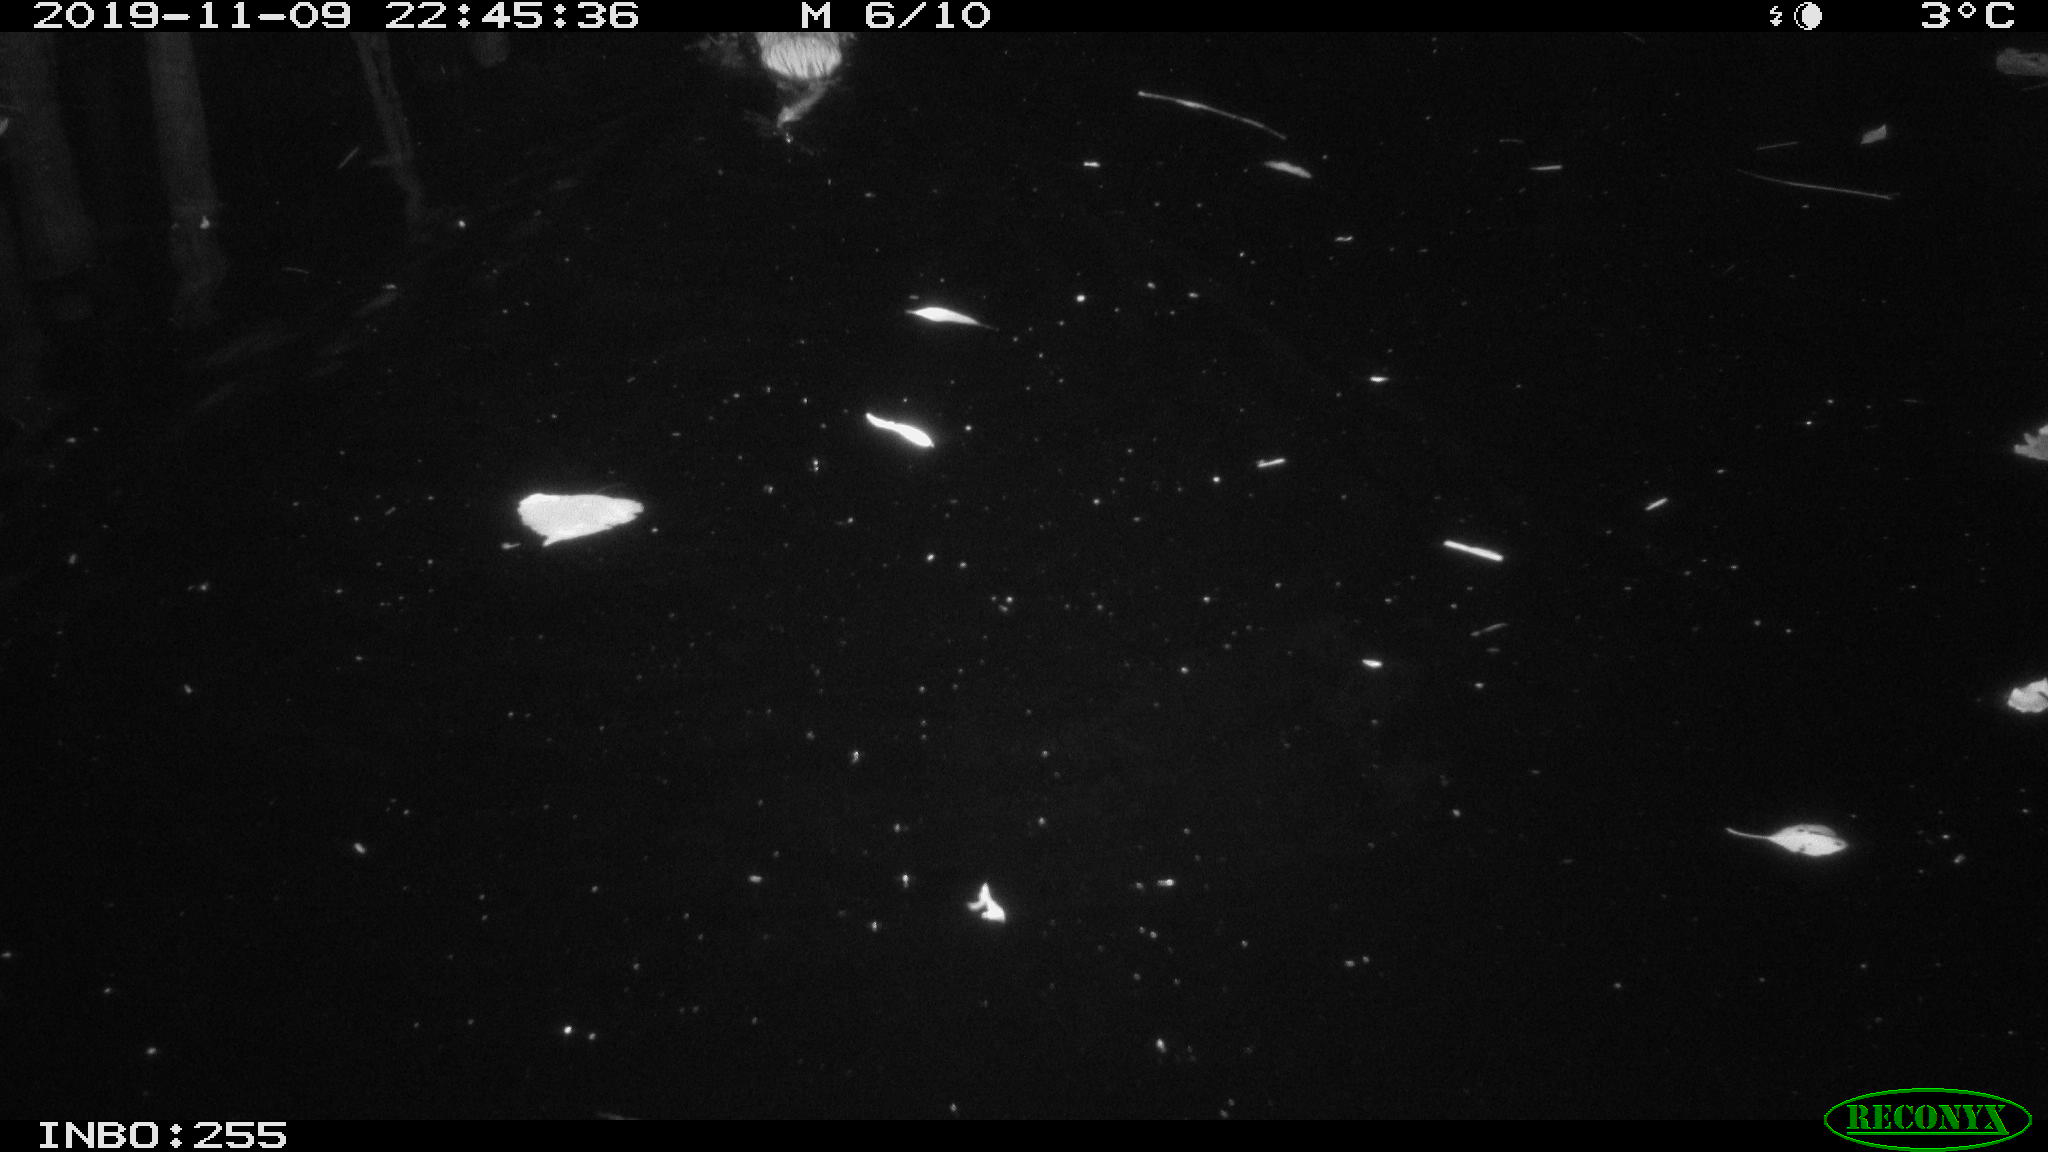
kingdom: Animalia
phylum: Chordata
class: Mammalia
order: Rodentia
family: Cricetidae
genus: Ondatra
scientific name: Ondatra zibethicus
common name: Muskrat
